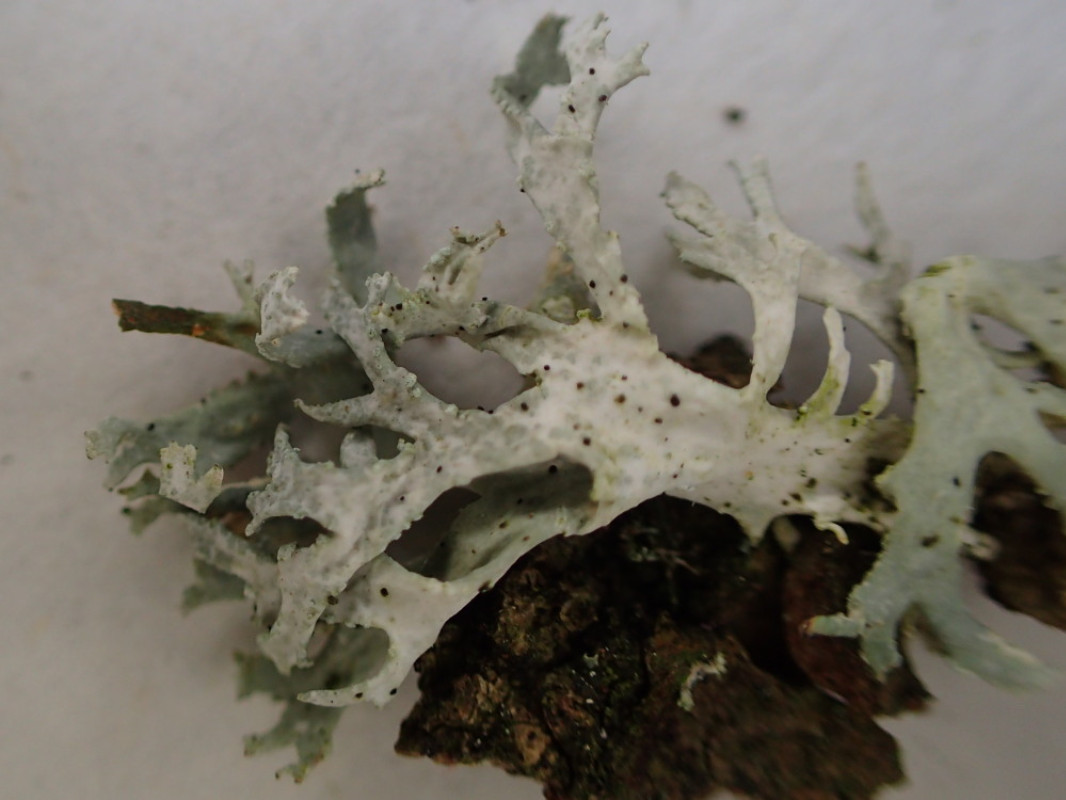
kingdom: Fungi
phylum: Ascomycota
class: Lecanoromycetes
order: Lecanorales
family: Parmeliaceae
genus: Evernia
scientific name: Evernia prunastri
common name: almindelig slåenlav
